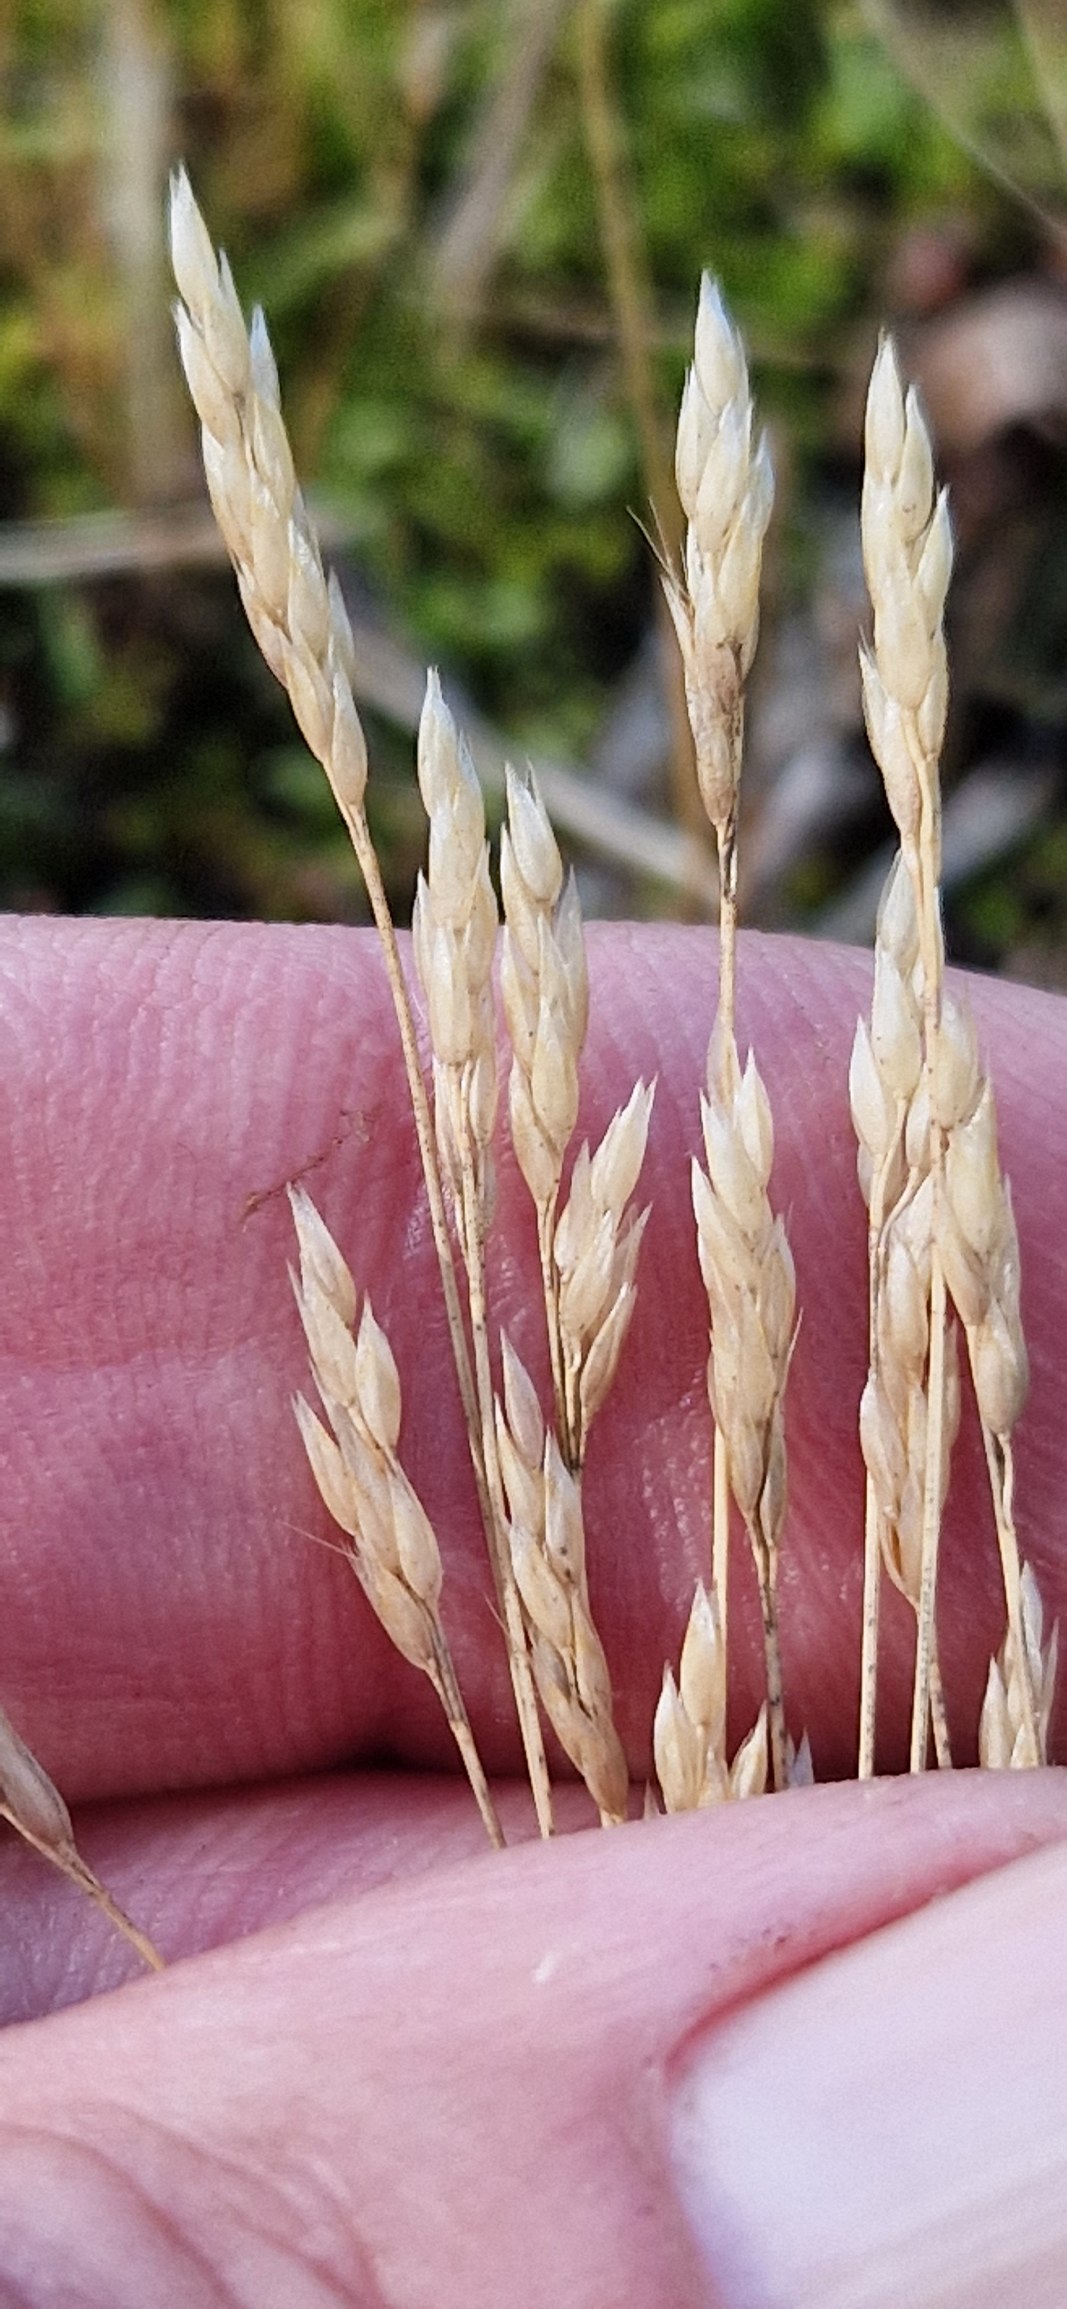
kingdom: Plantae
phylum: Tracheophyta
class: Liliopsida
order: Poales
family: Poaceae
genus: Aira
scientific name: Aira praecox
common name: Tidlig dværgbunke
